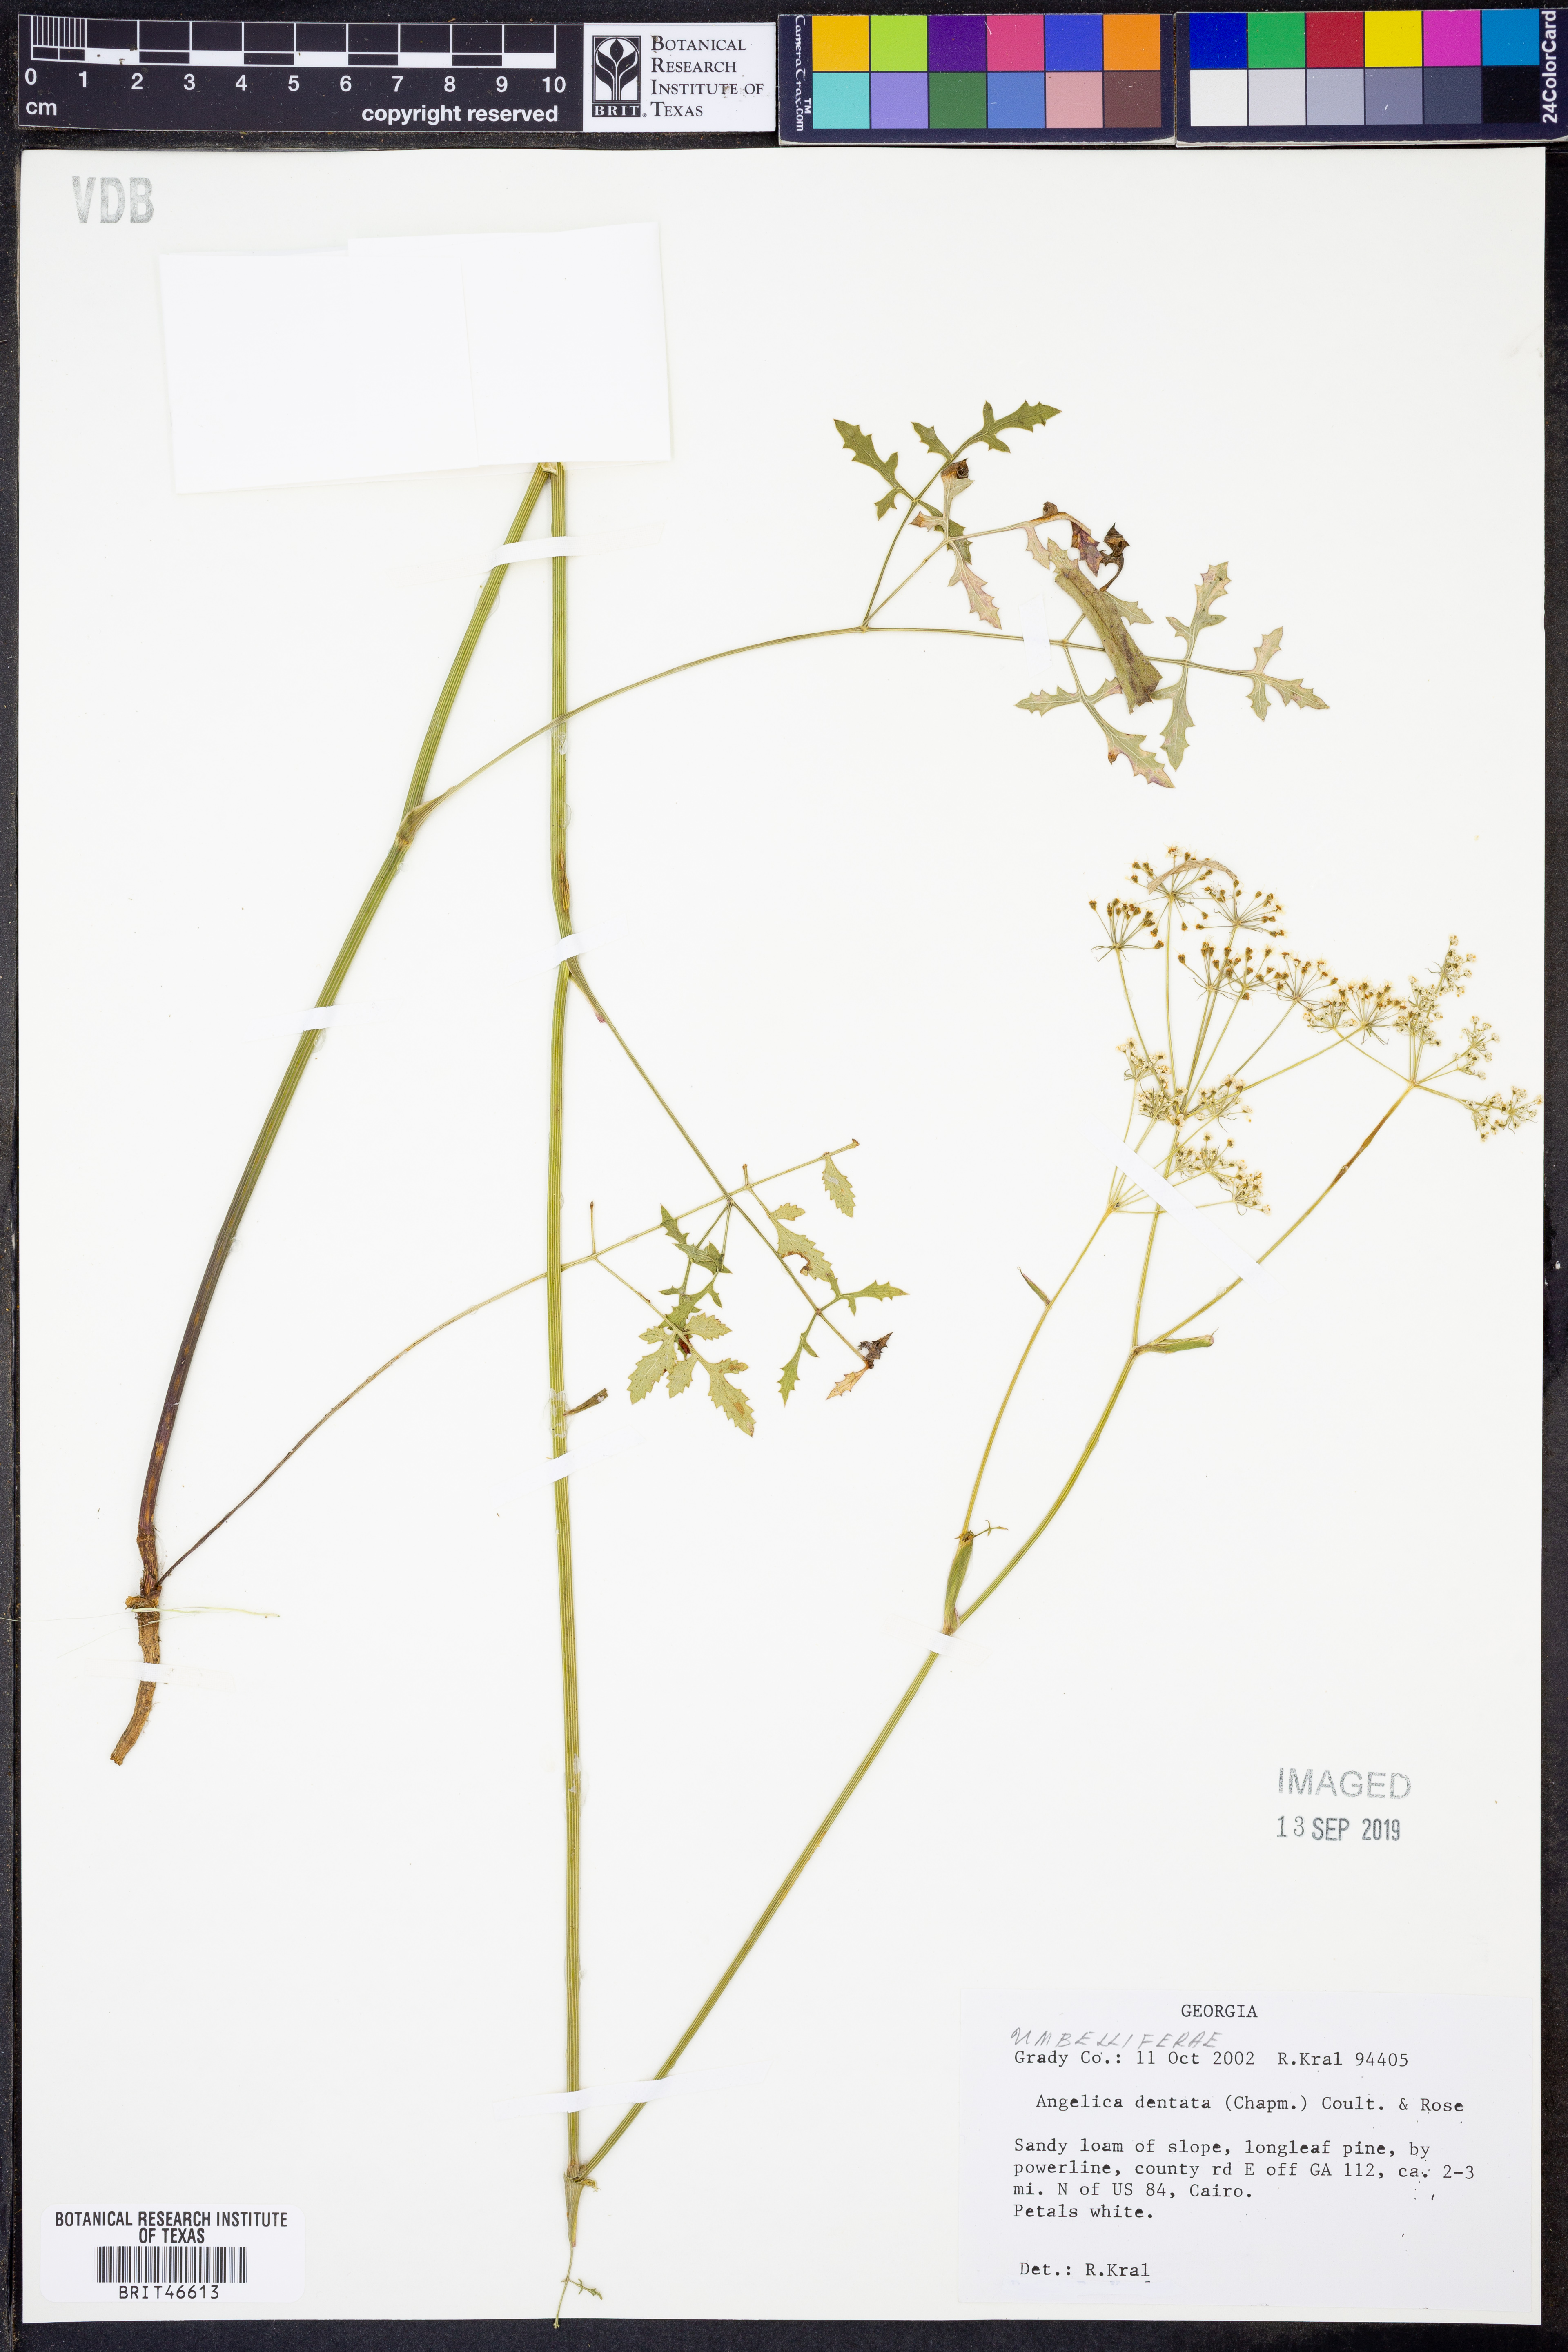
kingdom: Plantae
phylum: Tracheophyta
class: Magnoliopsida
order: Apiales
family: Apiaceae
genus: Angelica
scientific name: Angelica venenosa
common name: Hairy angelica
